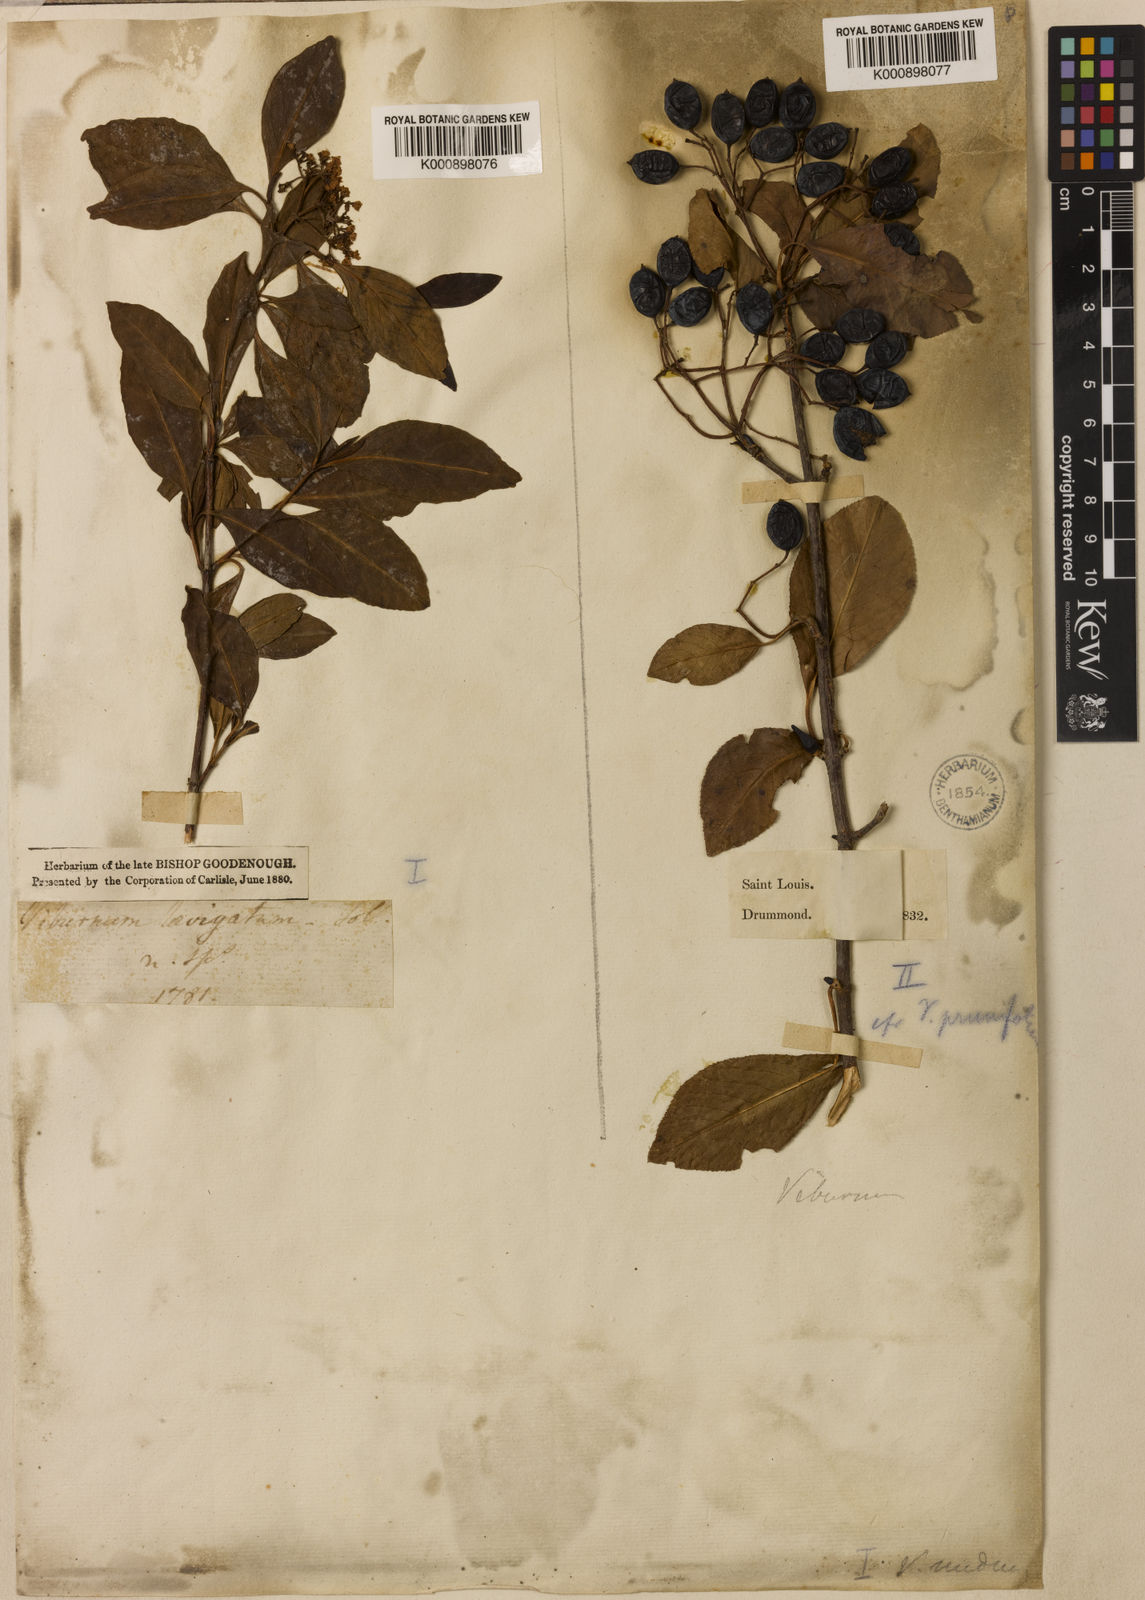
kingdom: Plantae
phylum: Tracheophyta
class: Magnoliopsida
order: Dipsacales
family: Viburnaceae
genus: Viburnum
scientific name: Viburnum nudum
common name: Possum haw
